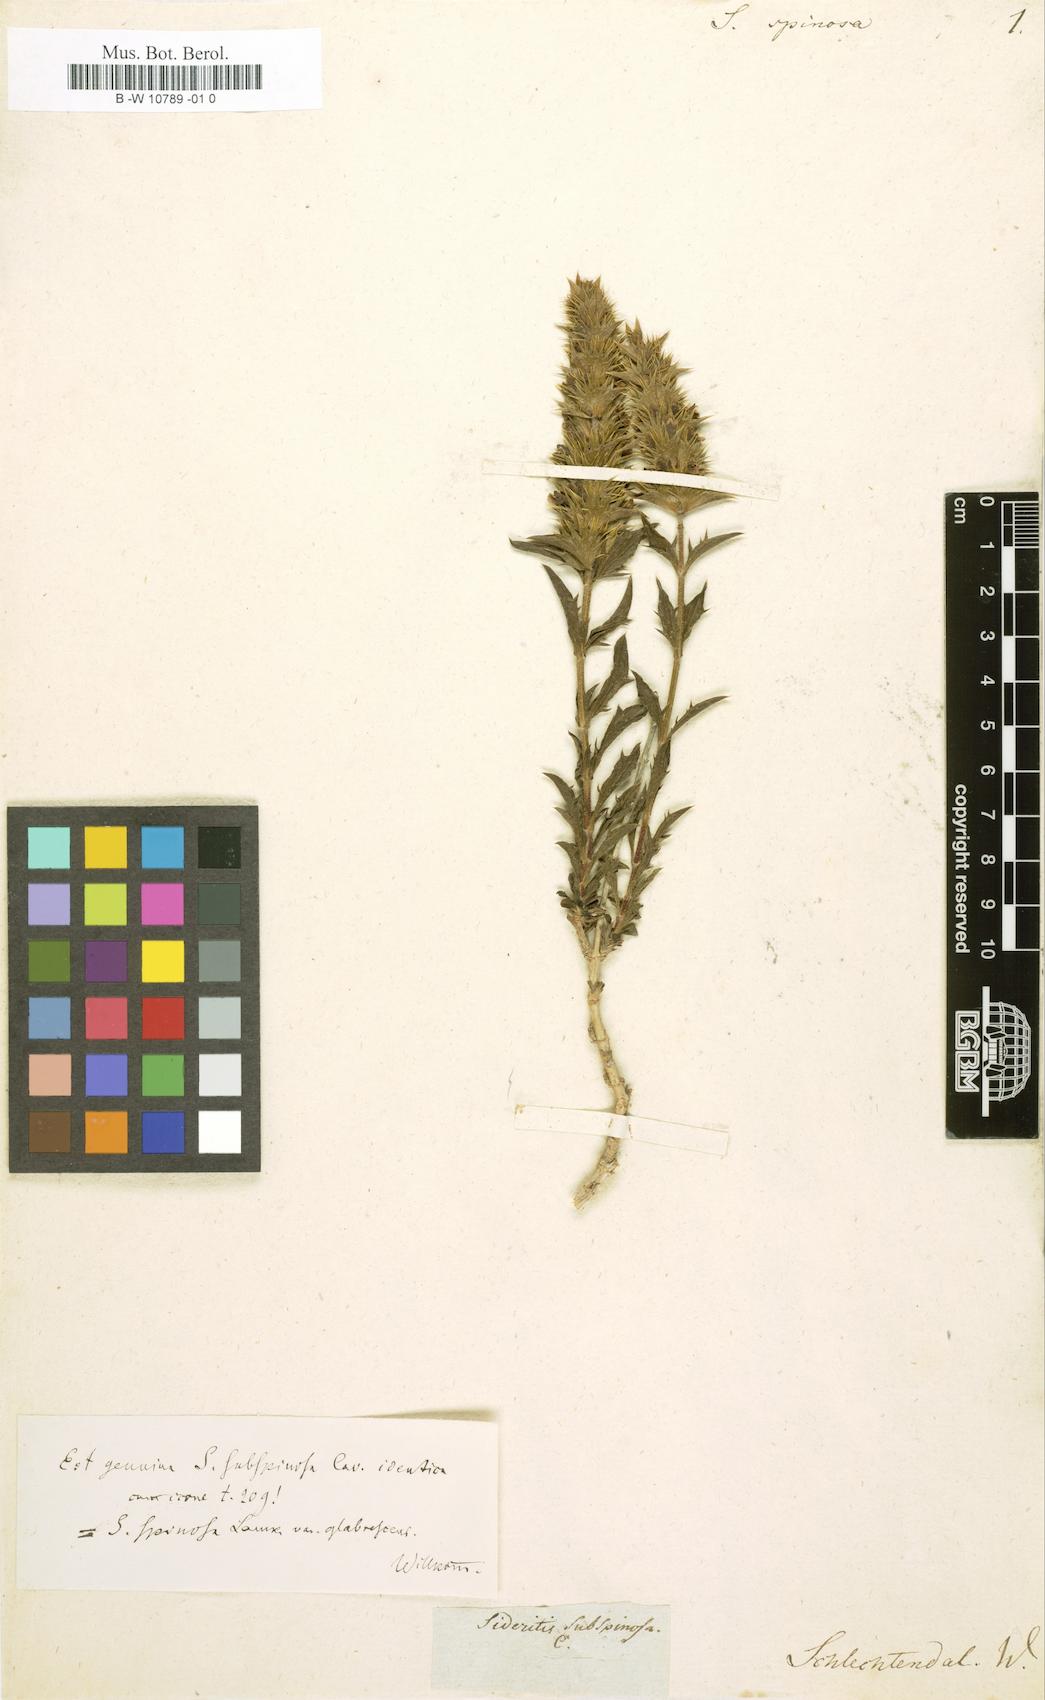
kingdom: Plantae
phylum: Tracheophyta
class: Magnoliopsida
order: Lamiales
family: Lamiaceae
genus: Sideritis
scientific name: Sideritis
